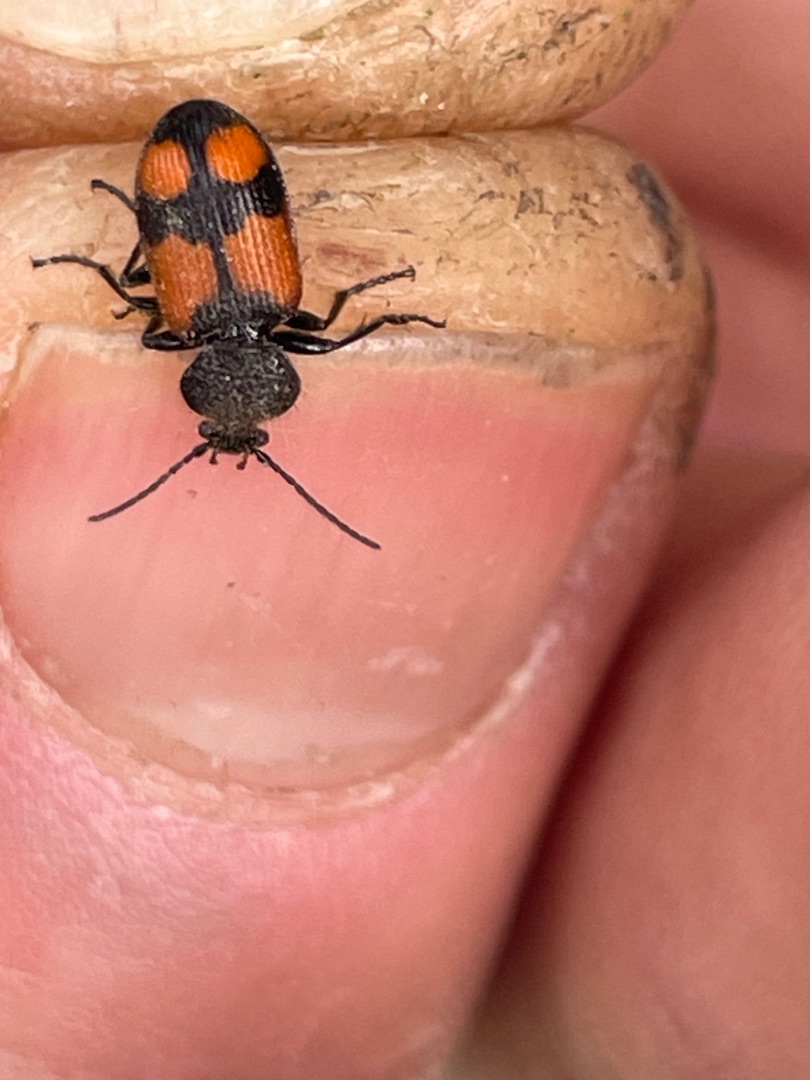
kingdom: Animalia
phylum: Arthropoda
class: Insecta
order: Coleoptera
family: Carabidae
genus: Panagaeus
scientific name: Panagaeus cruxmajor
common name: Stor korsløber
